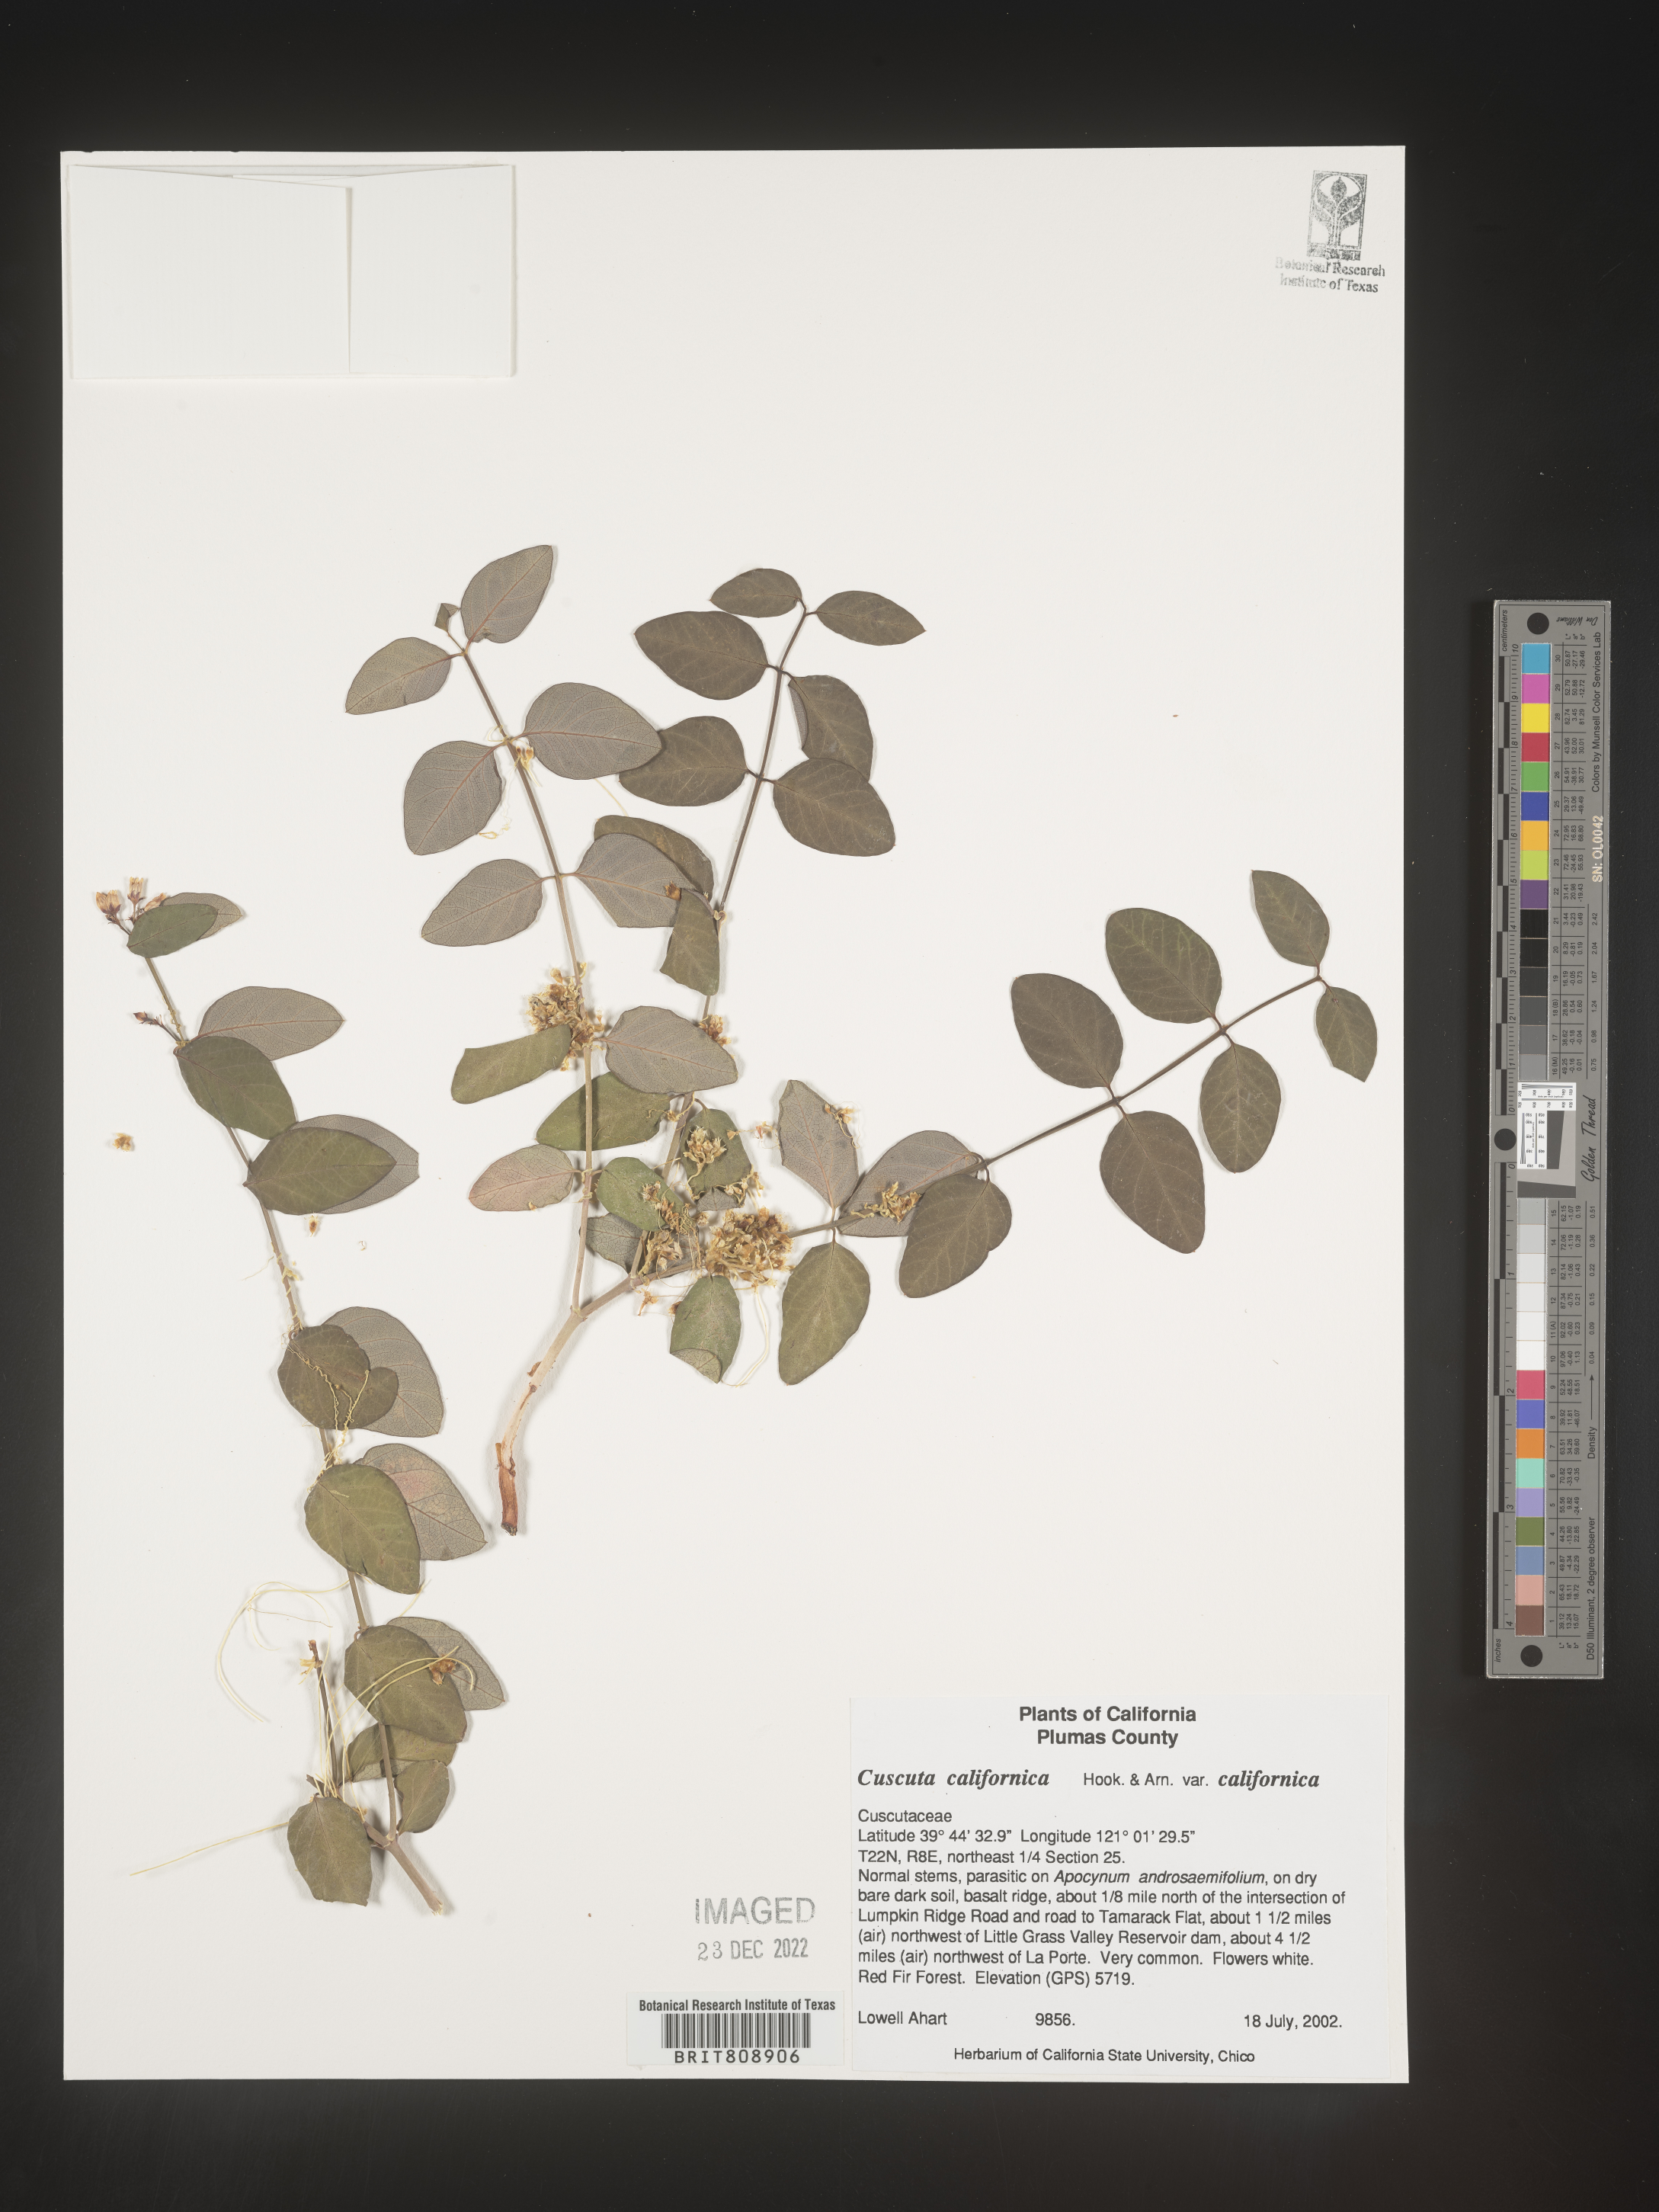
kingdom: Plantae
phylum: Tracheophyta
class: Magnoliopsida
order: Solanales
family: Convolvulaceae
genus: Cuscuta
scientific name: Cuscuta californica
